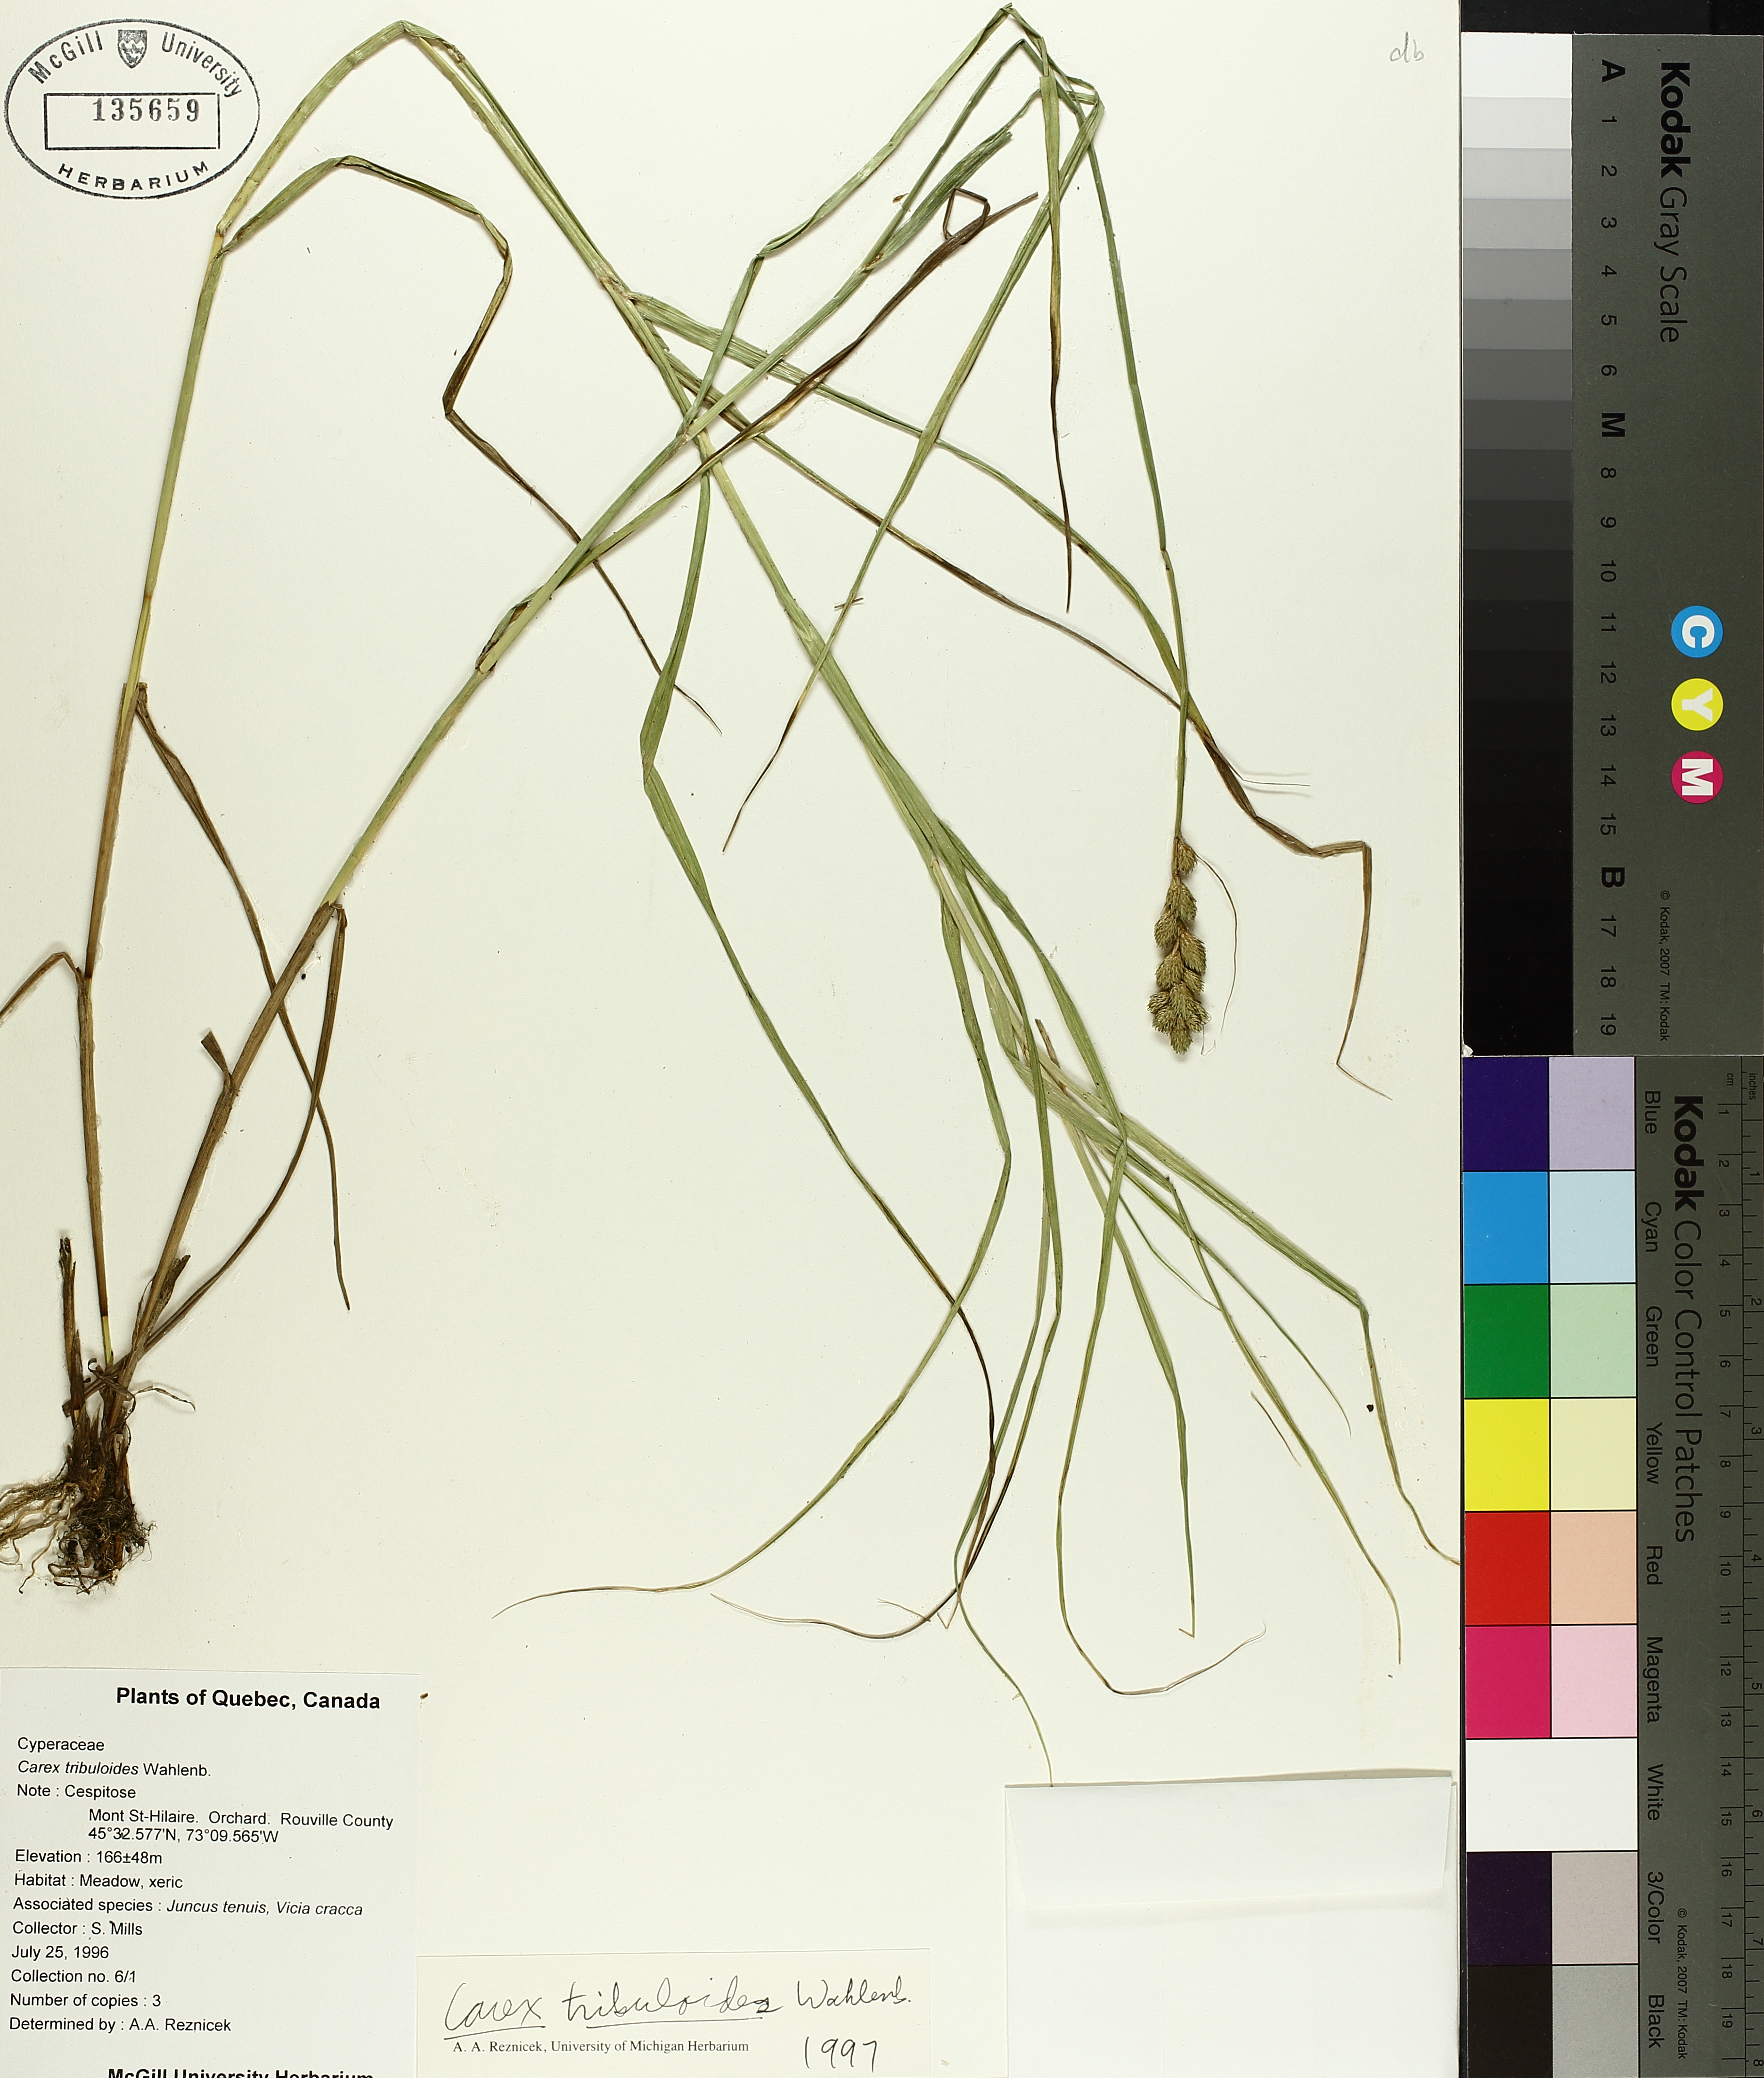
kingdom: Plantae
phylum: Tracheophyta
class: Liliopsida
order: Poales
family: Cyperaceae
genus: Carex
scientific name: Carex tribuloides
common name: Blunt broom sedge
